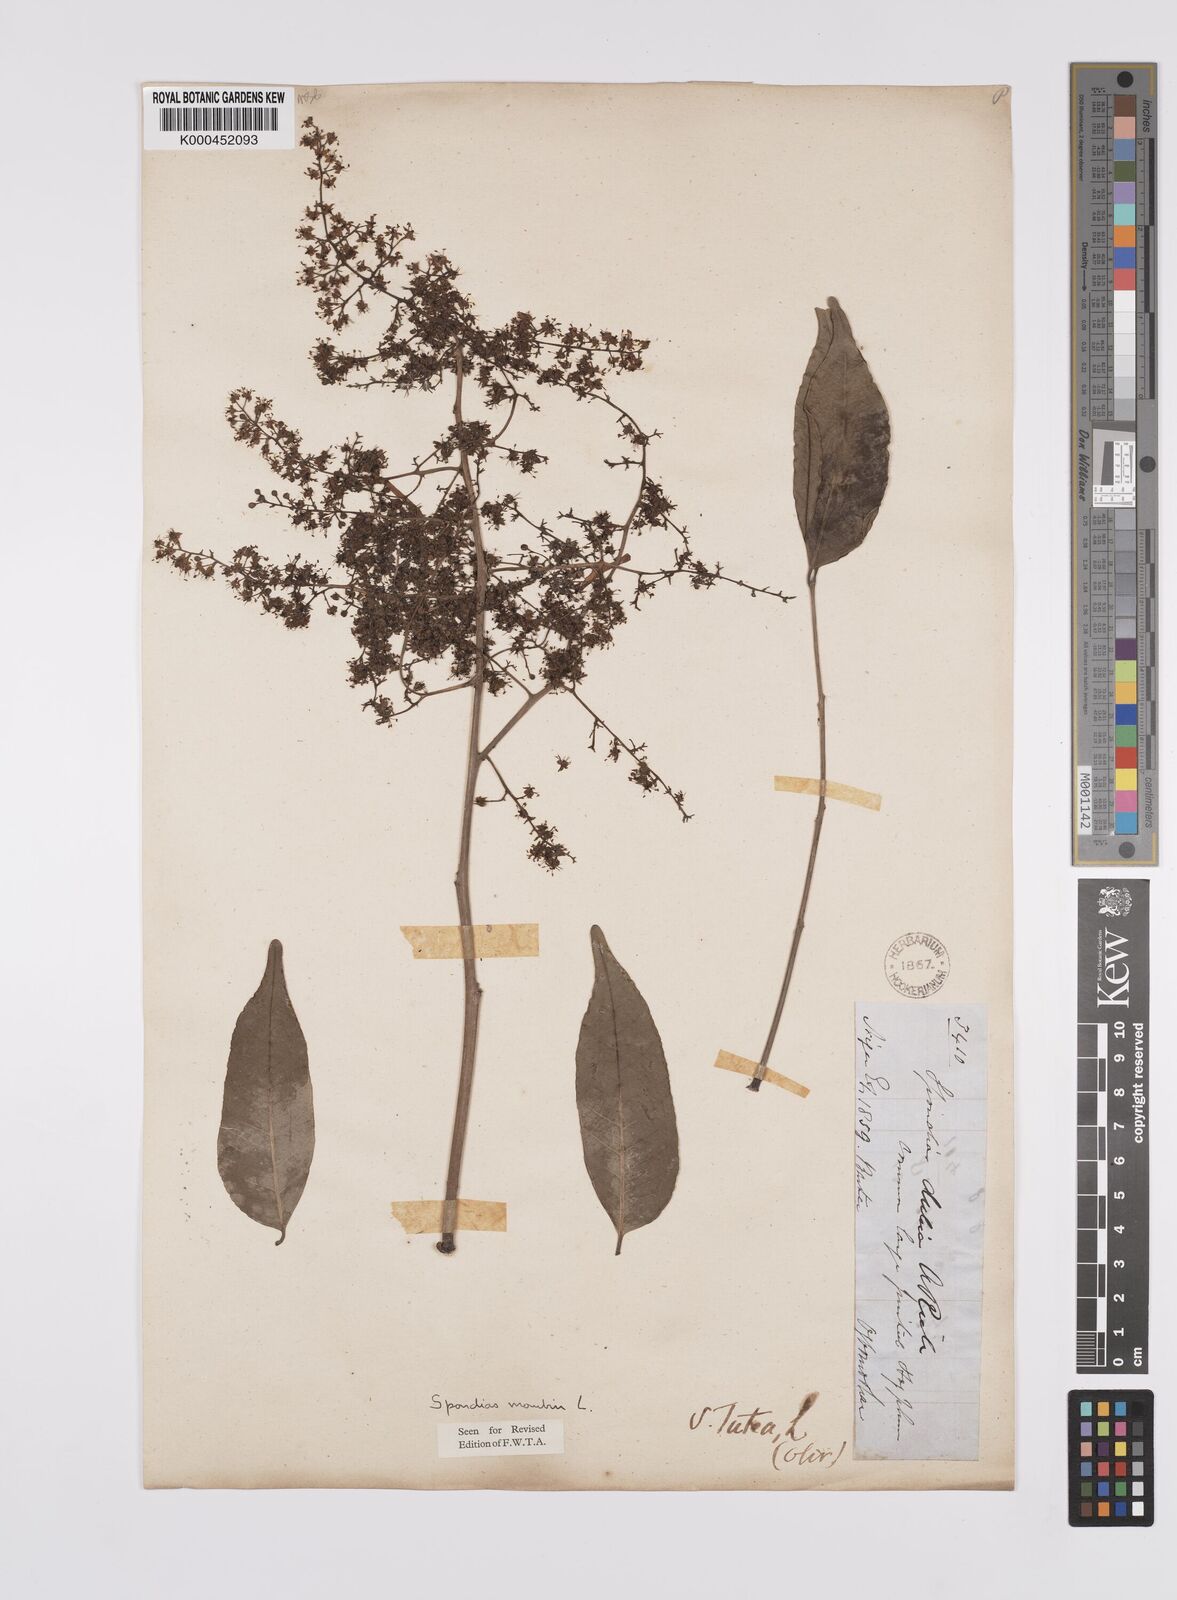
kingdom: Plantae
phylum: Tracheophyta
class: Magnoliopsida
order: Sapindales
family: Anacardiaceae
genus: Spondias
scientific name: Spondias mombin
